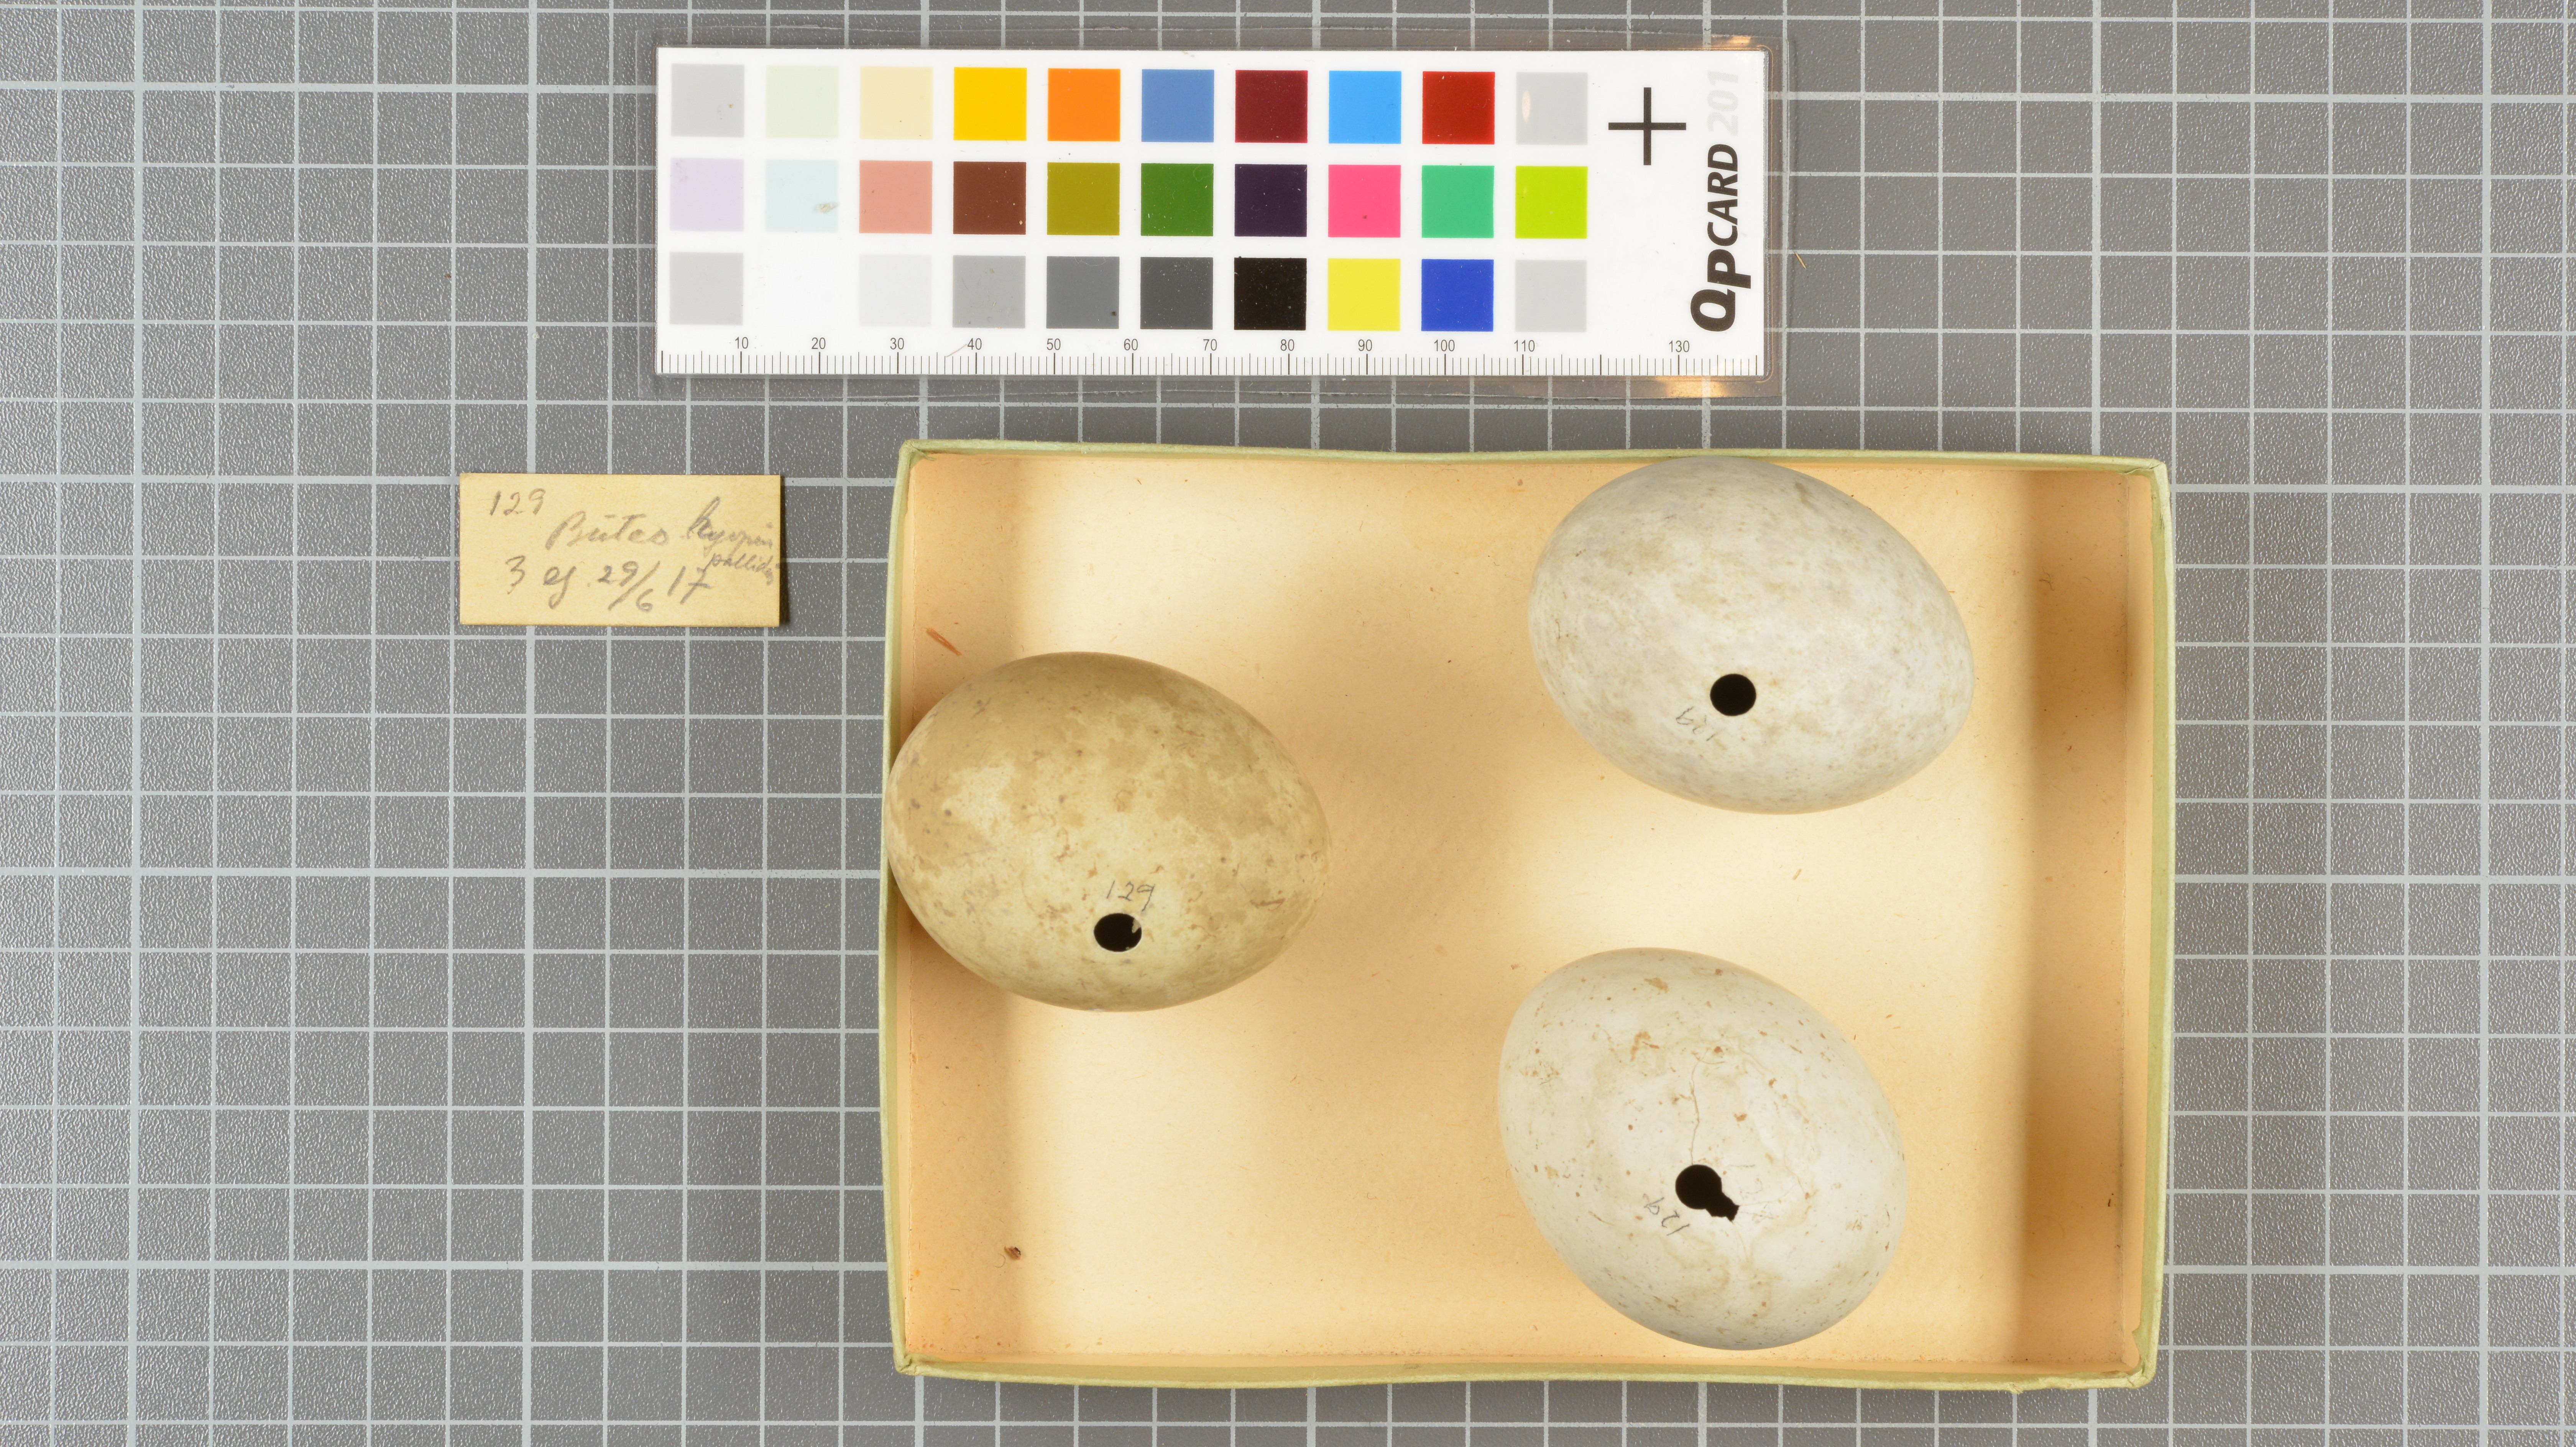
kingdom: Animalia
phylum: Chordata
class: Aves
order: Accipitriformes
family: Accipitridae
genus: Buteo
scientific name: Buteo lagopus
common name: Rough-legged buzzard
